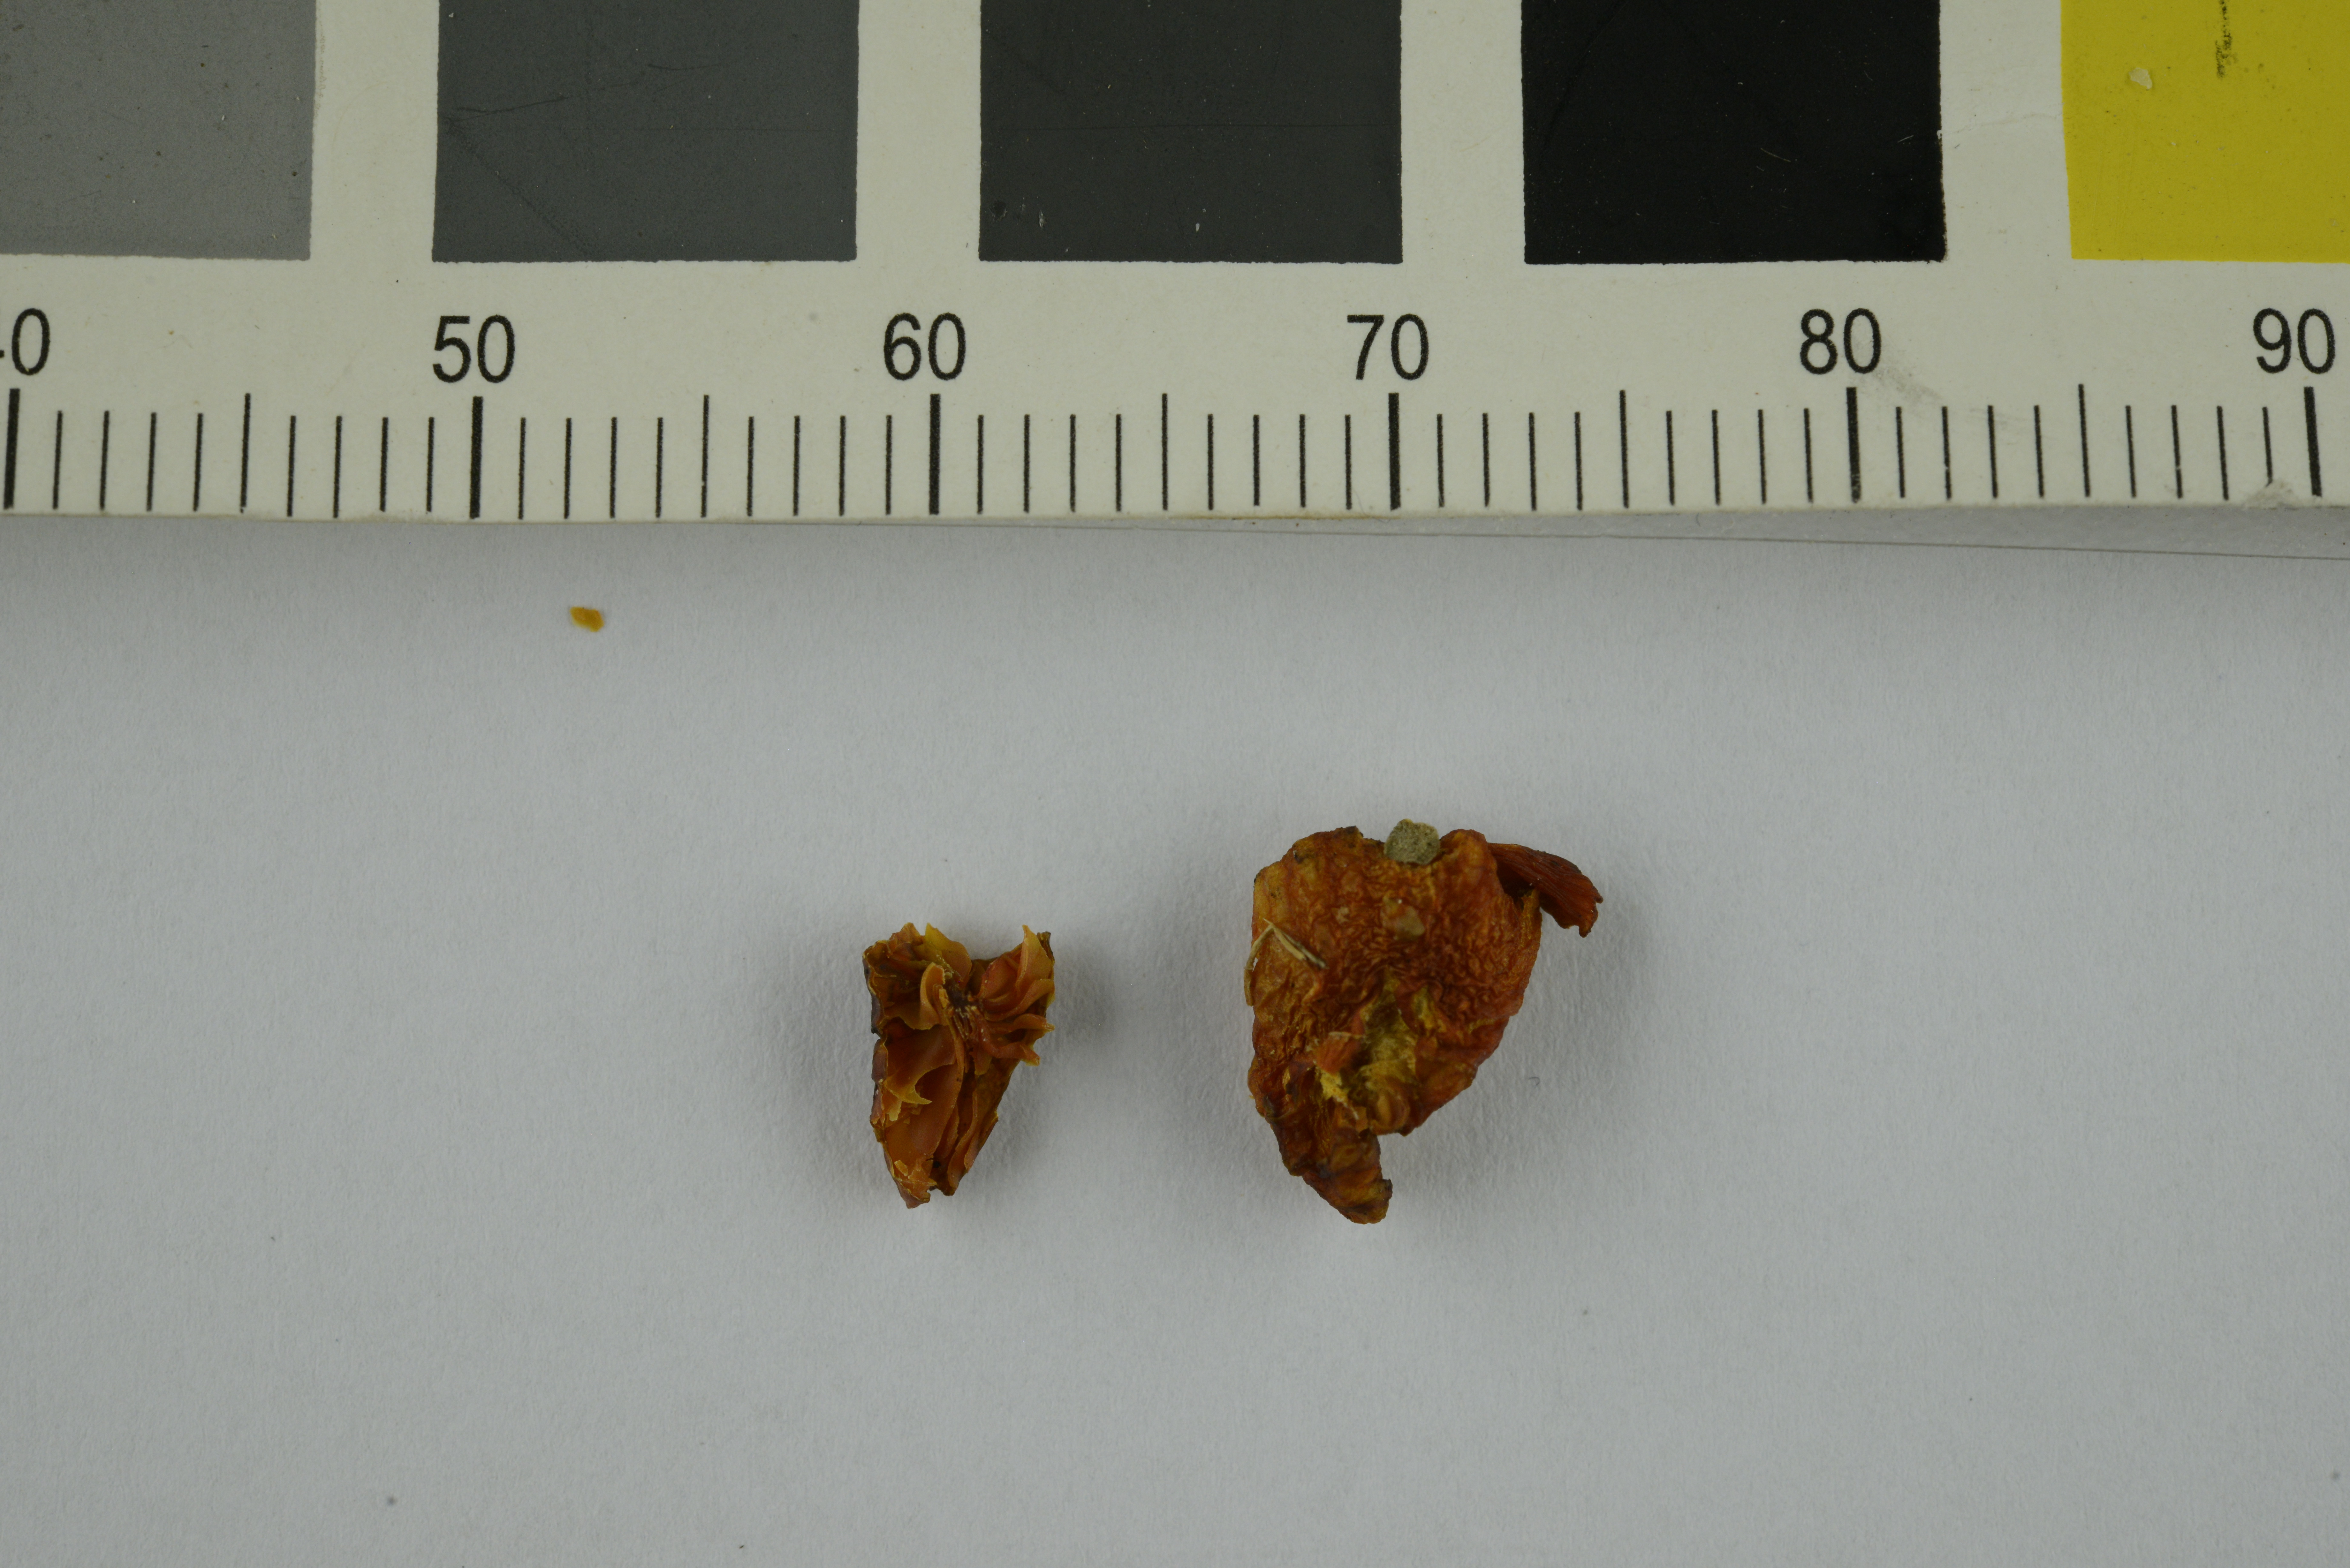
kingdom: Fungi
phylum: Basidiomycota
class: Agaricomycetes
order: Agaricales
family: Hygrophoraceae
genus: Hygrocybe
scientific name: Hygrocybe phaeococcinea
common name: Shadowed waxcap
